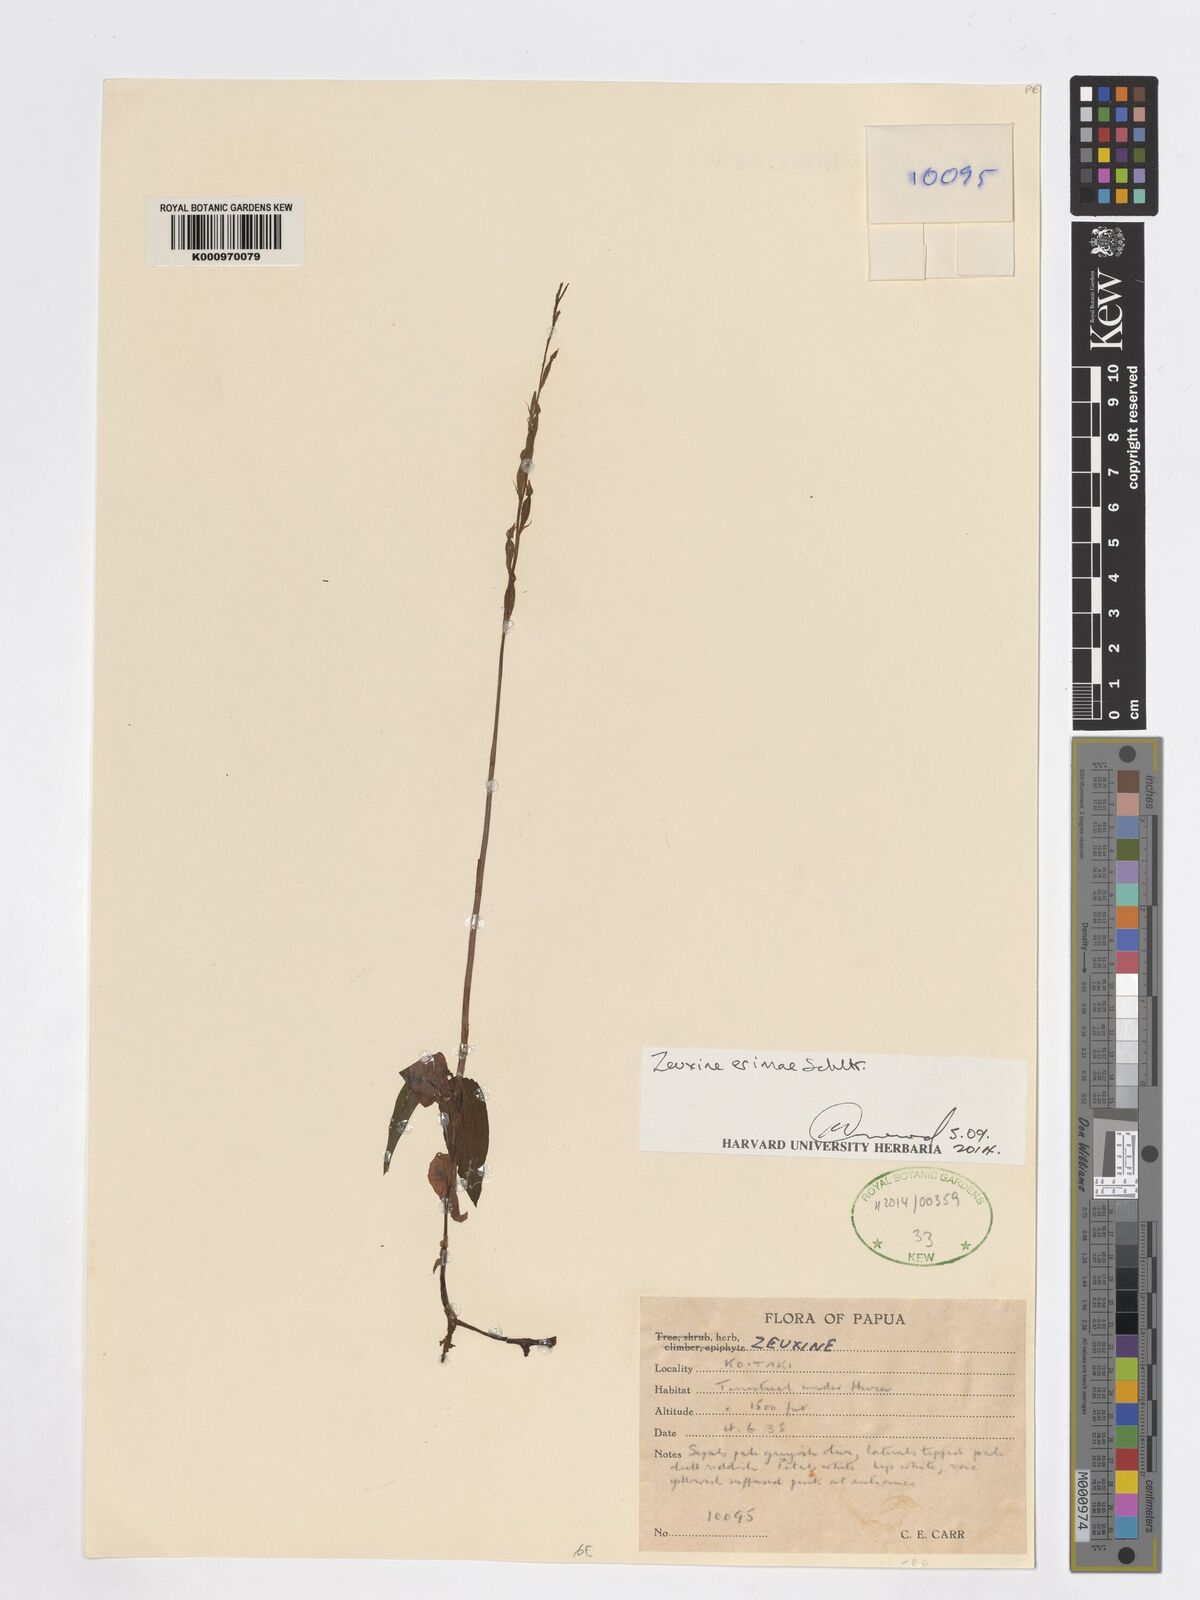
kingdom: Plantae
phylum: Tracheophyta
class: Liliopsida
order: Asparagales
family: Orchidaceae
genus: Zeuxine
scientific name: Zeuxine erimae
